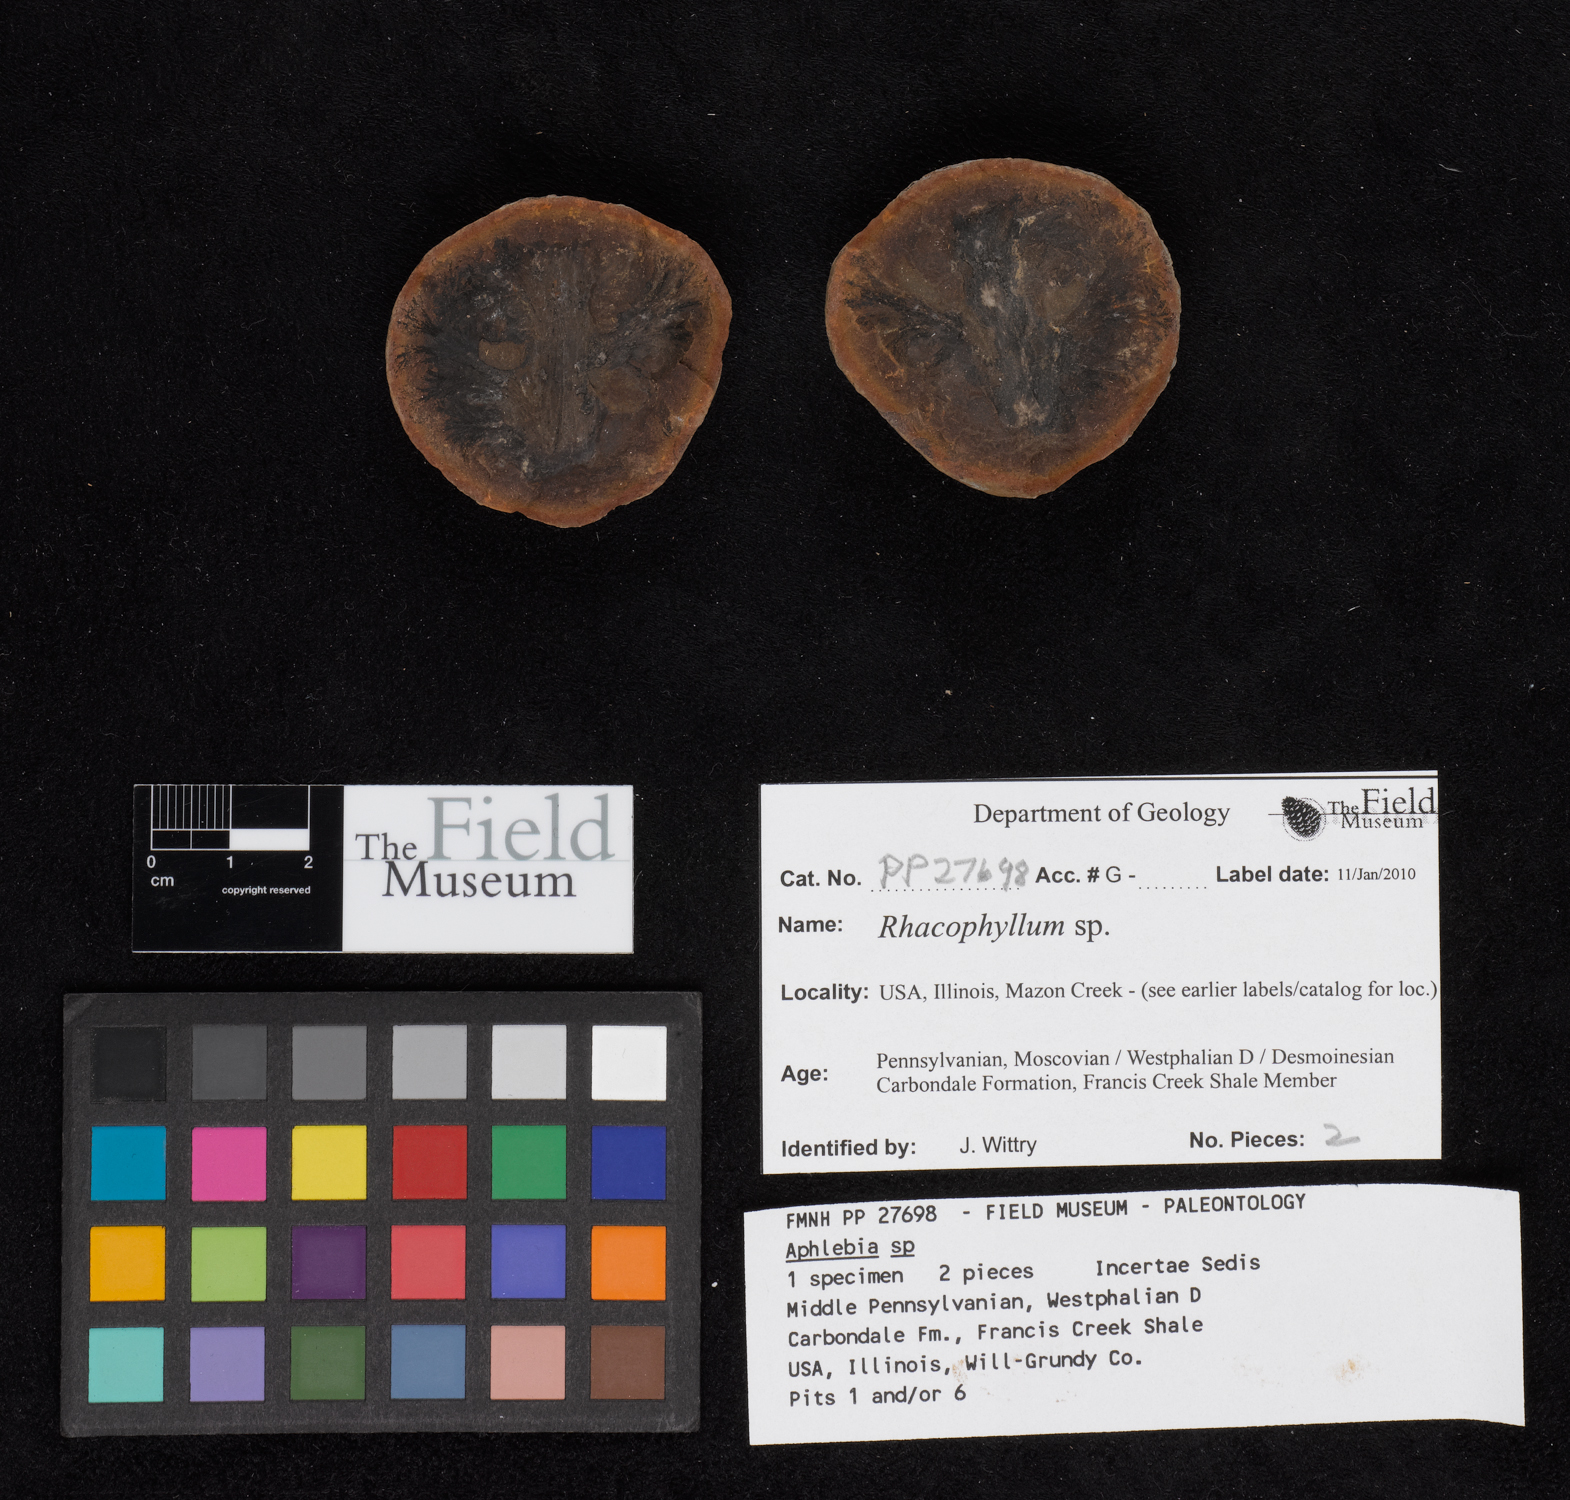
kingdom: Plantae
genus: Rhacophyllum
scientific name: Rhacophyllum
